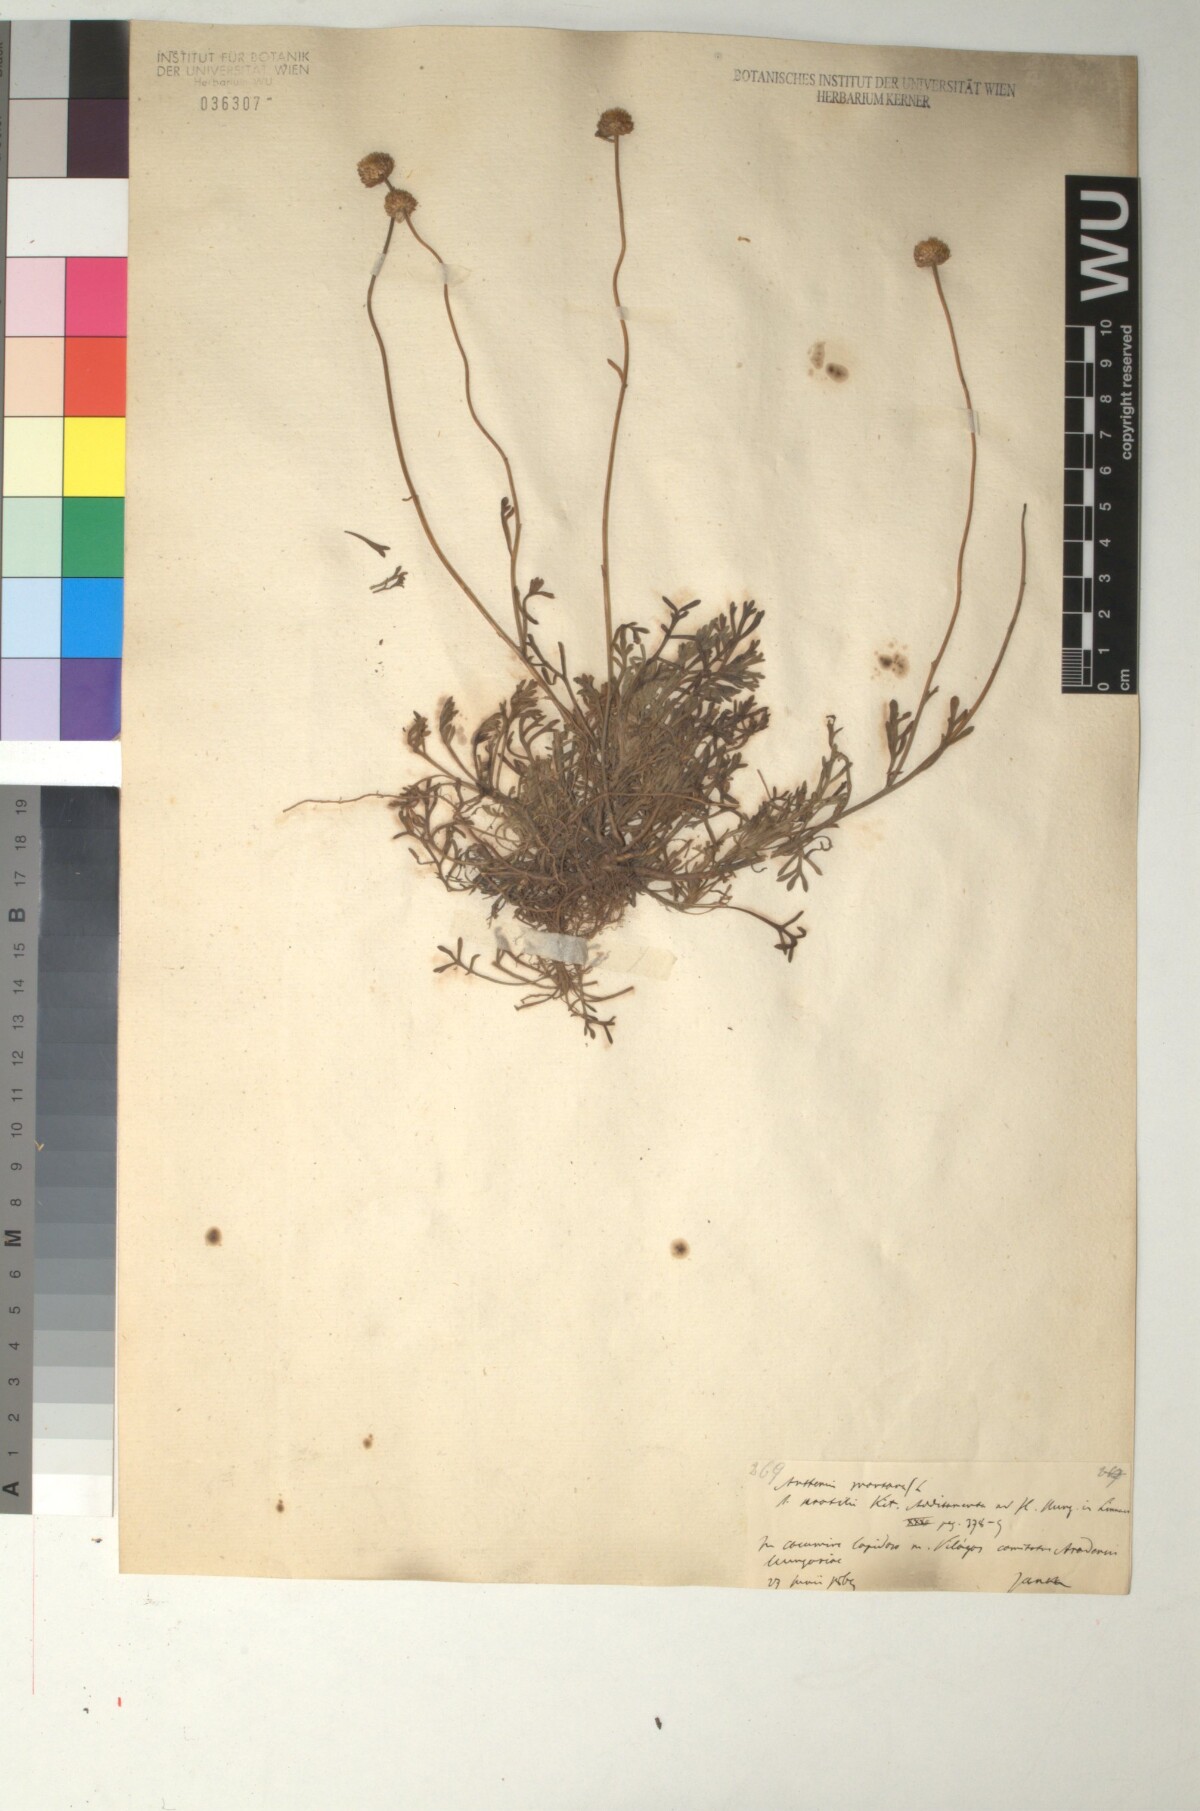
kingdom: Plantae
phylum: Tracheophyta
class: Magnoliopsida
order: Asterales
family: Asteraceae
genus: Anthemis
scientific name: Anthemis cretica
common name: Mountain dog-daisy
